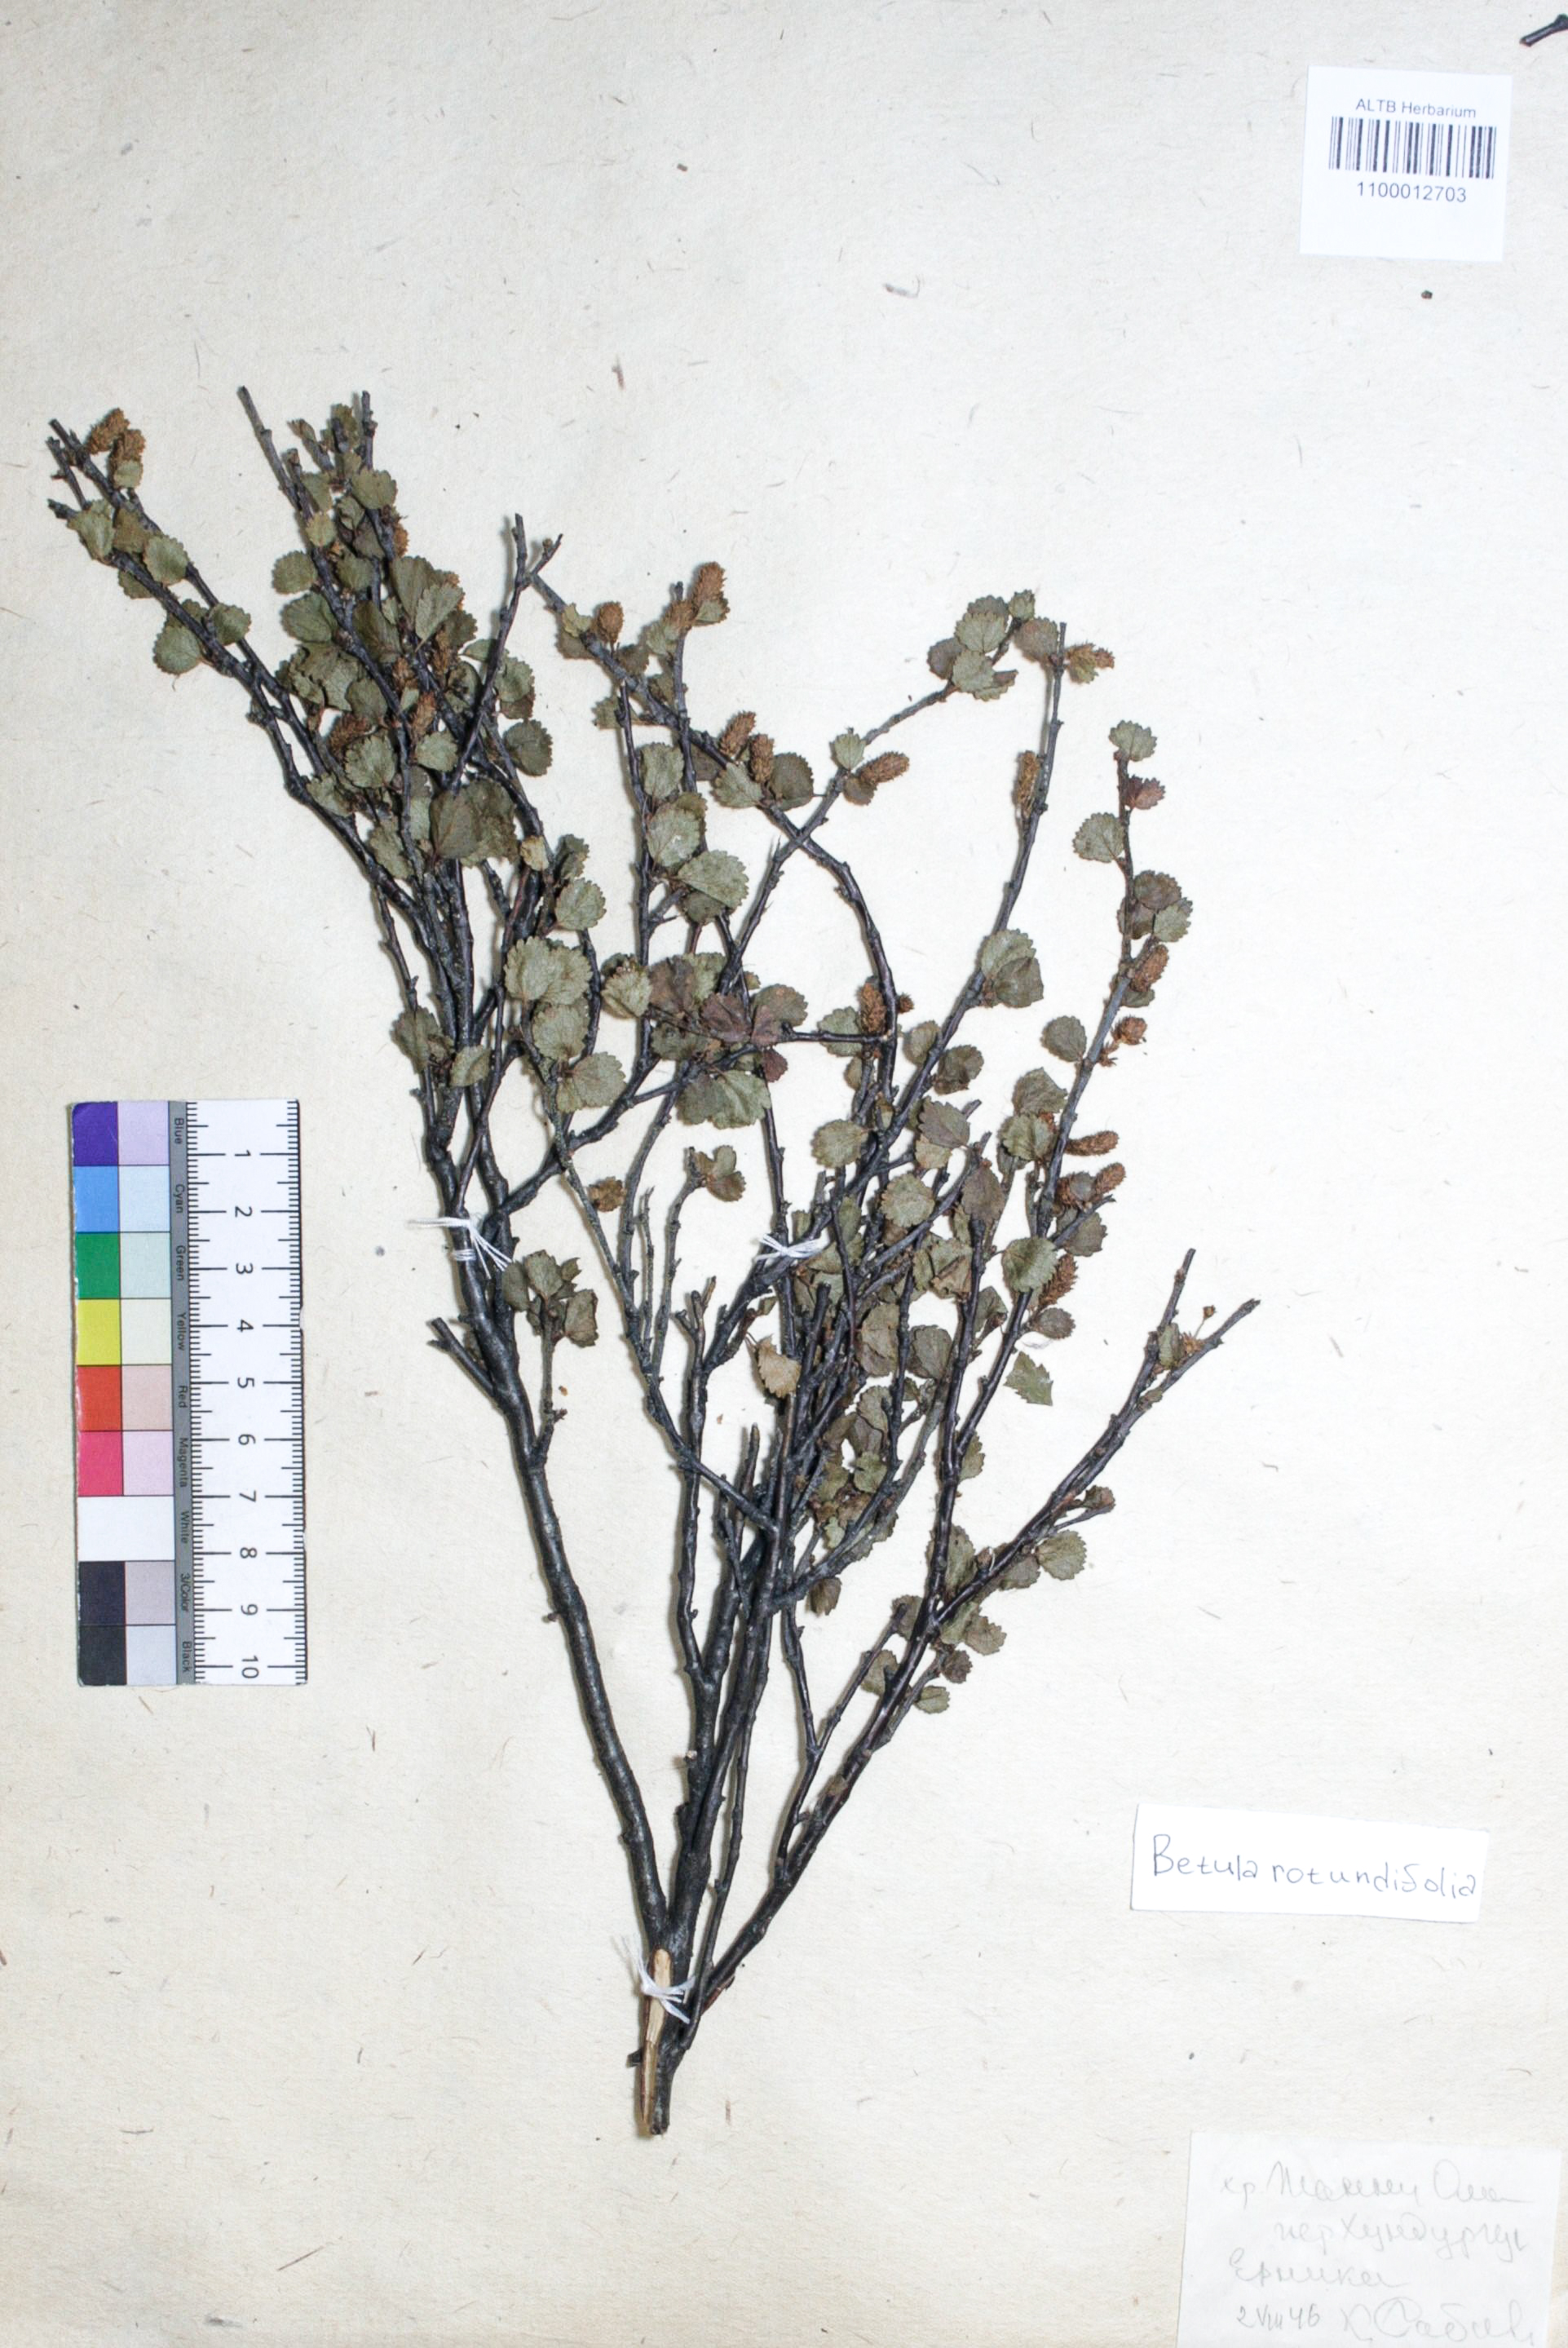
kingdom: Plantae
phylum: Tracheophyta
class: Magnoliopsida
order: Fagales
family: Betulaceae
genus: Betula
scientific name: Betula glandulosa
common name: Dwarf birch
